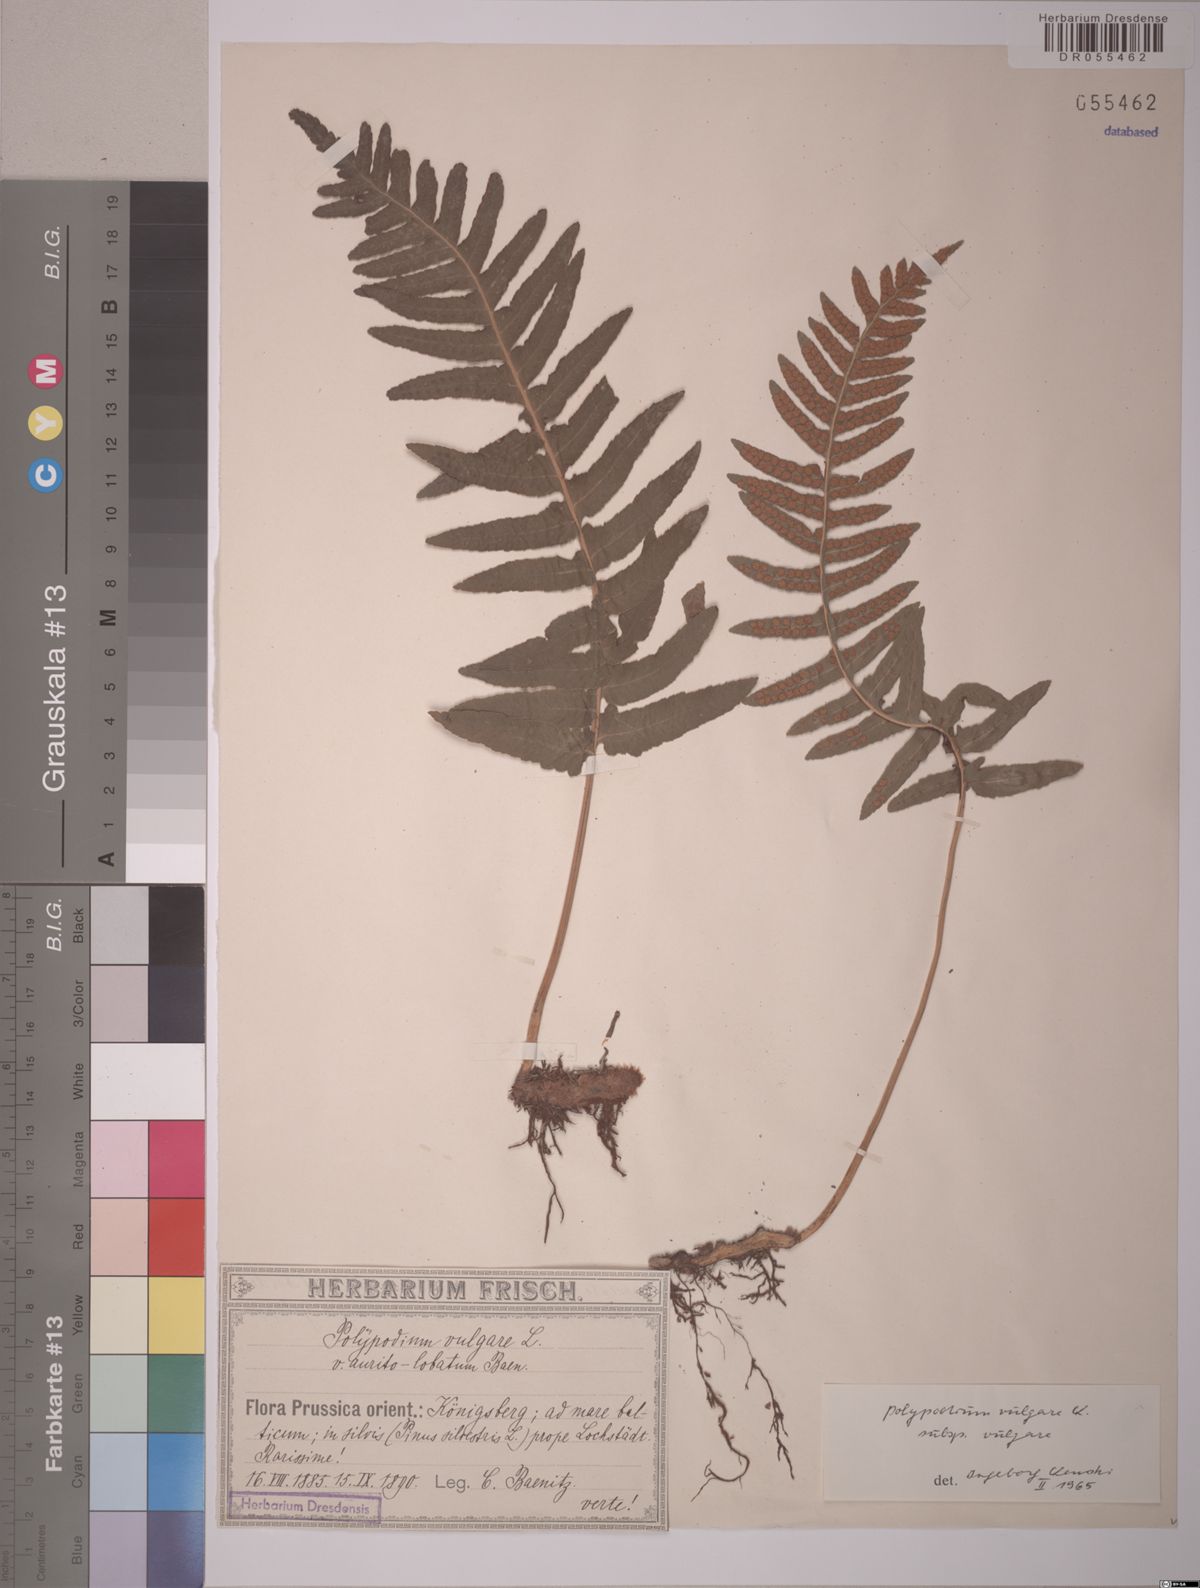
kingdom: Plantae
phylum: Tracheophyta
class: Polypodiopsida
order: Polypodiales
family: Polypodiaceae
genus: Polypodium
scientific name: Polypodium vulgare
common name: Common polypody
